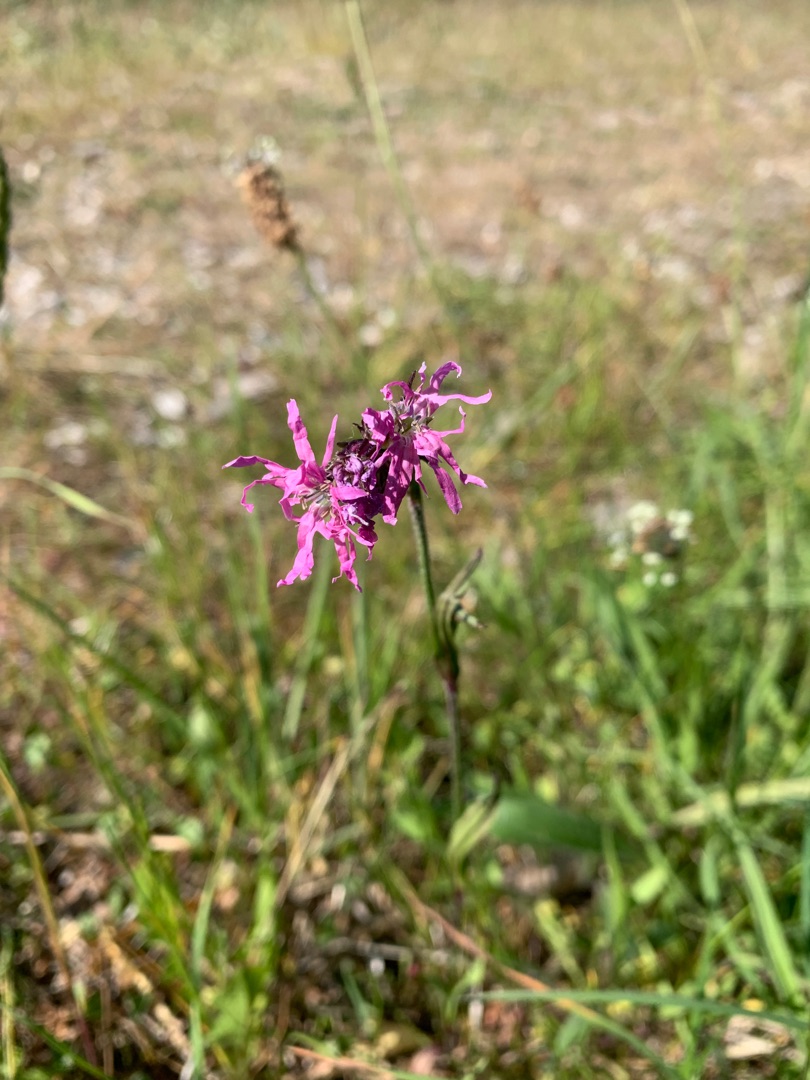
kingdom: Plantae
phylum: Tracheophyta
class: Magnoliopsida
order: Caryophyllales
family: Caryophyllaceae
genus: Silene
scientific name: Silene flos-cuculi
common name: Trævlekrone
